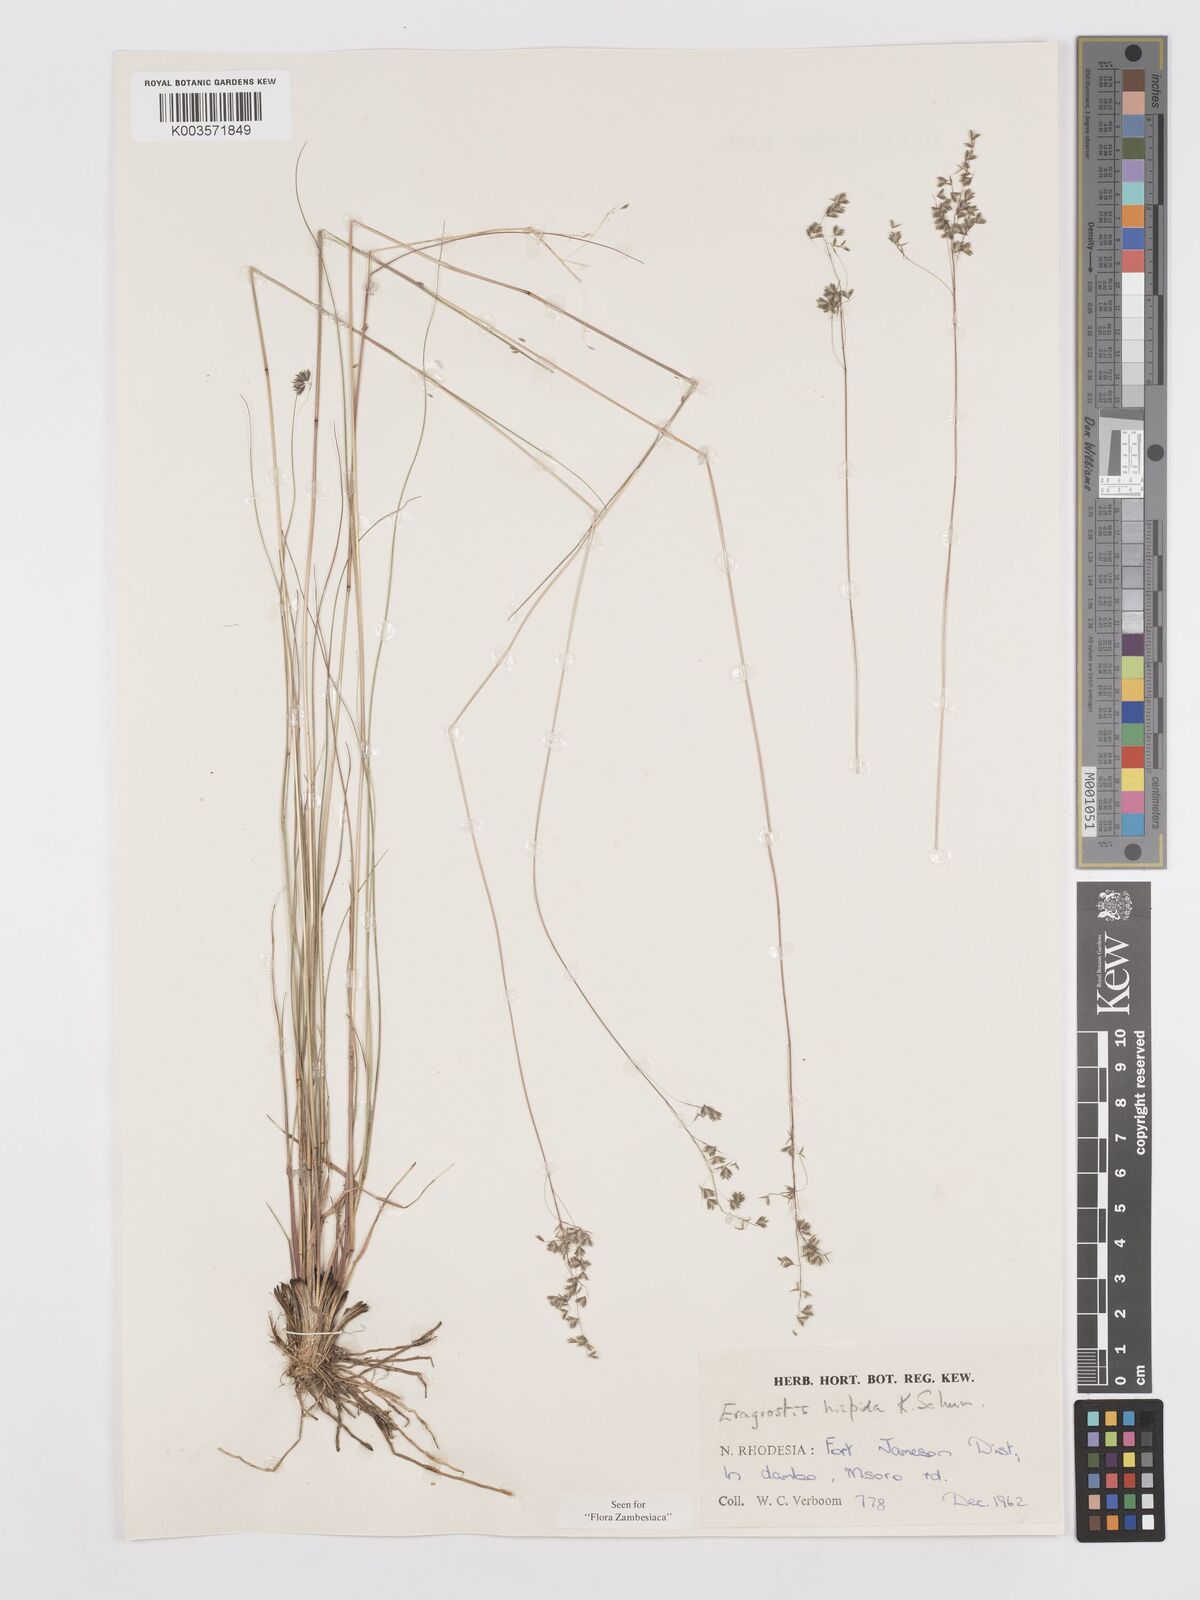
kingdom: Plantae
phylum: Tracheophyta
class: Liliopsida
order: Poales
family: Poaceae
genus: Eragrostis
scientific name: Eragrostis hispida
